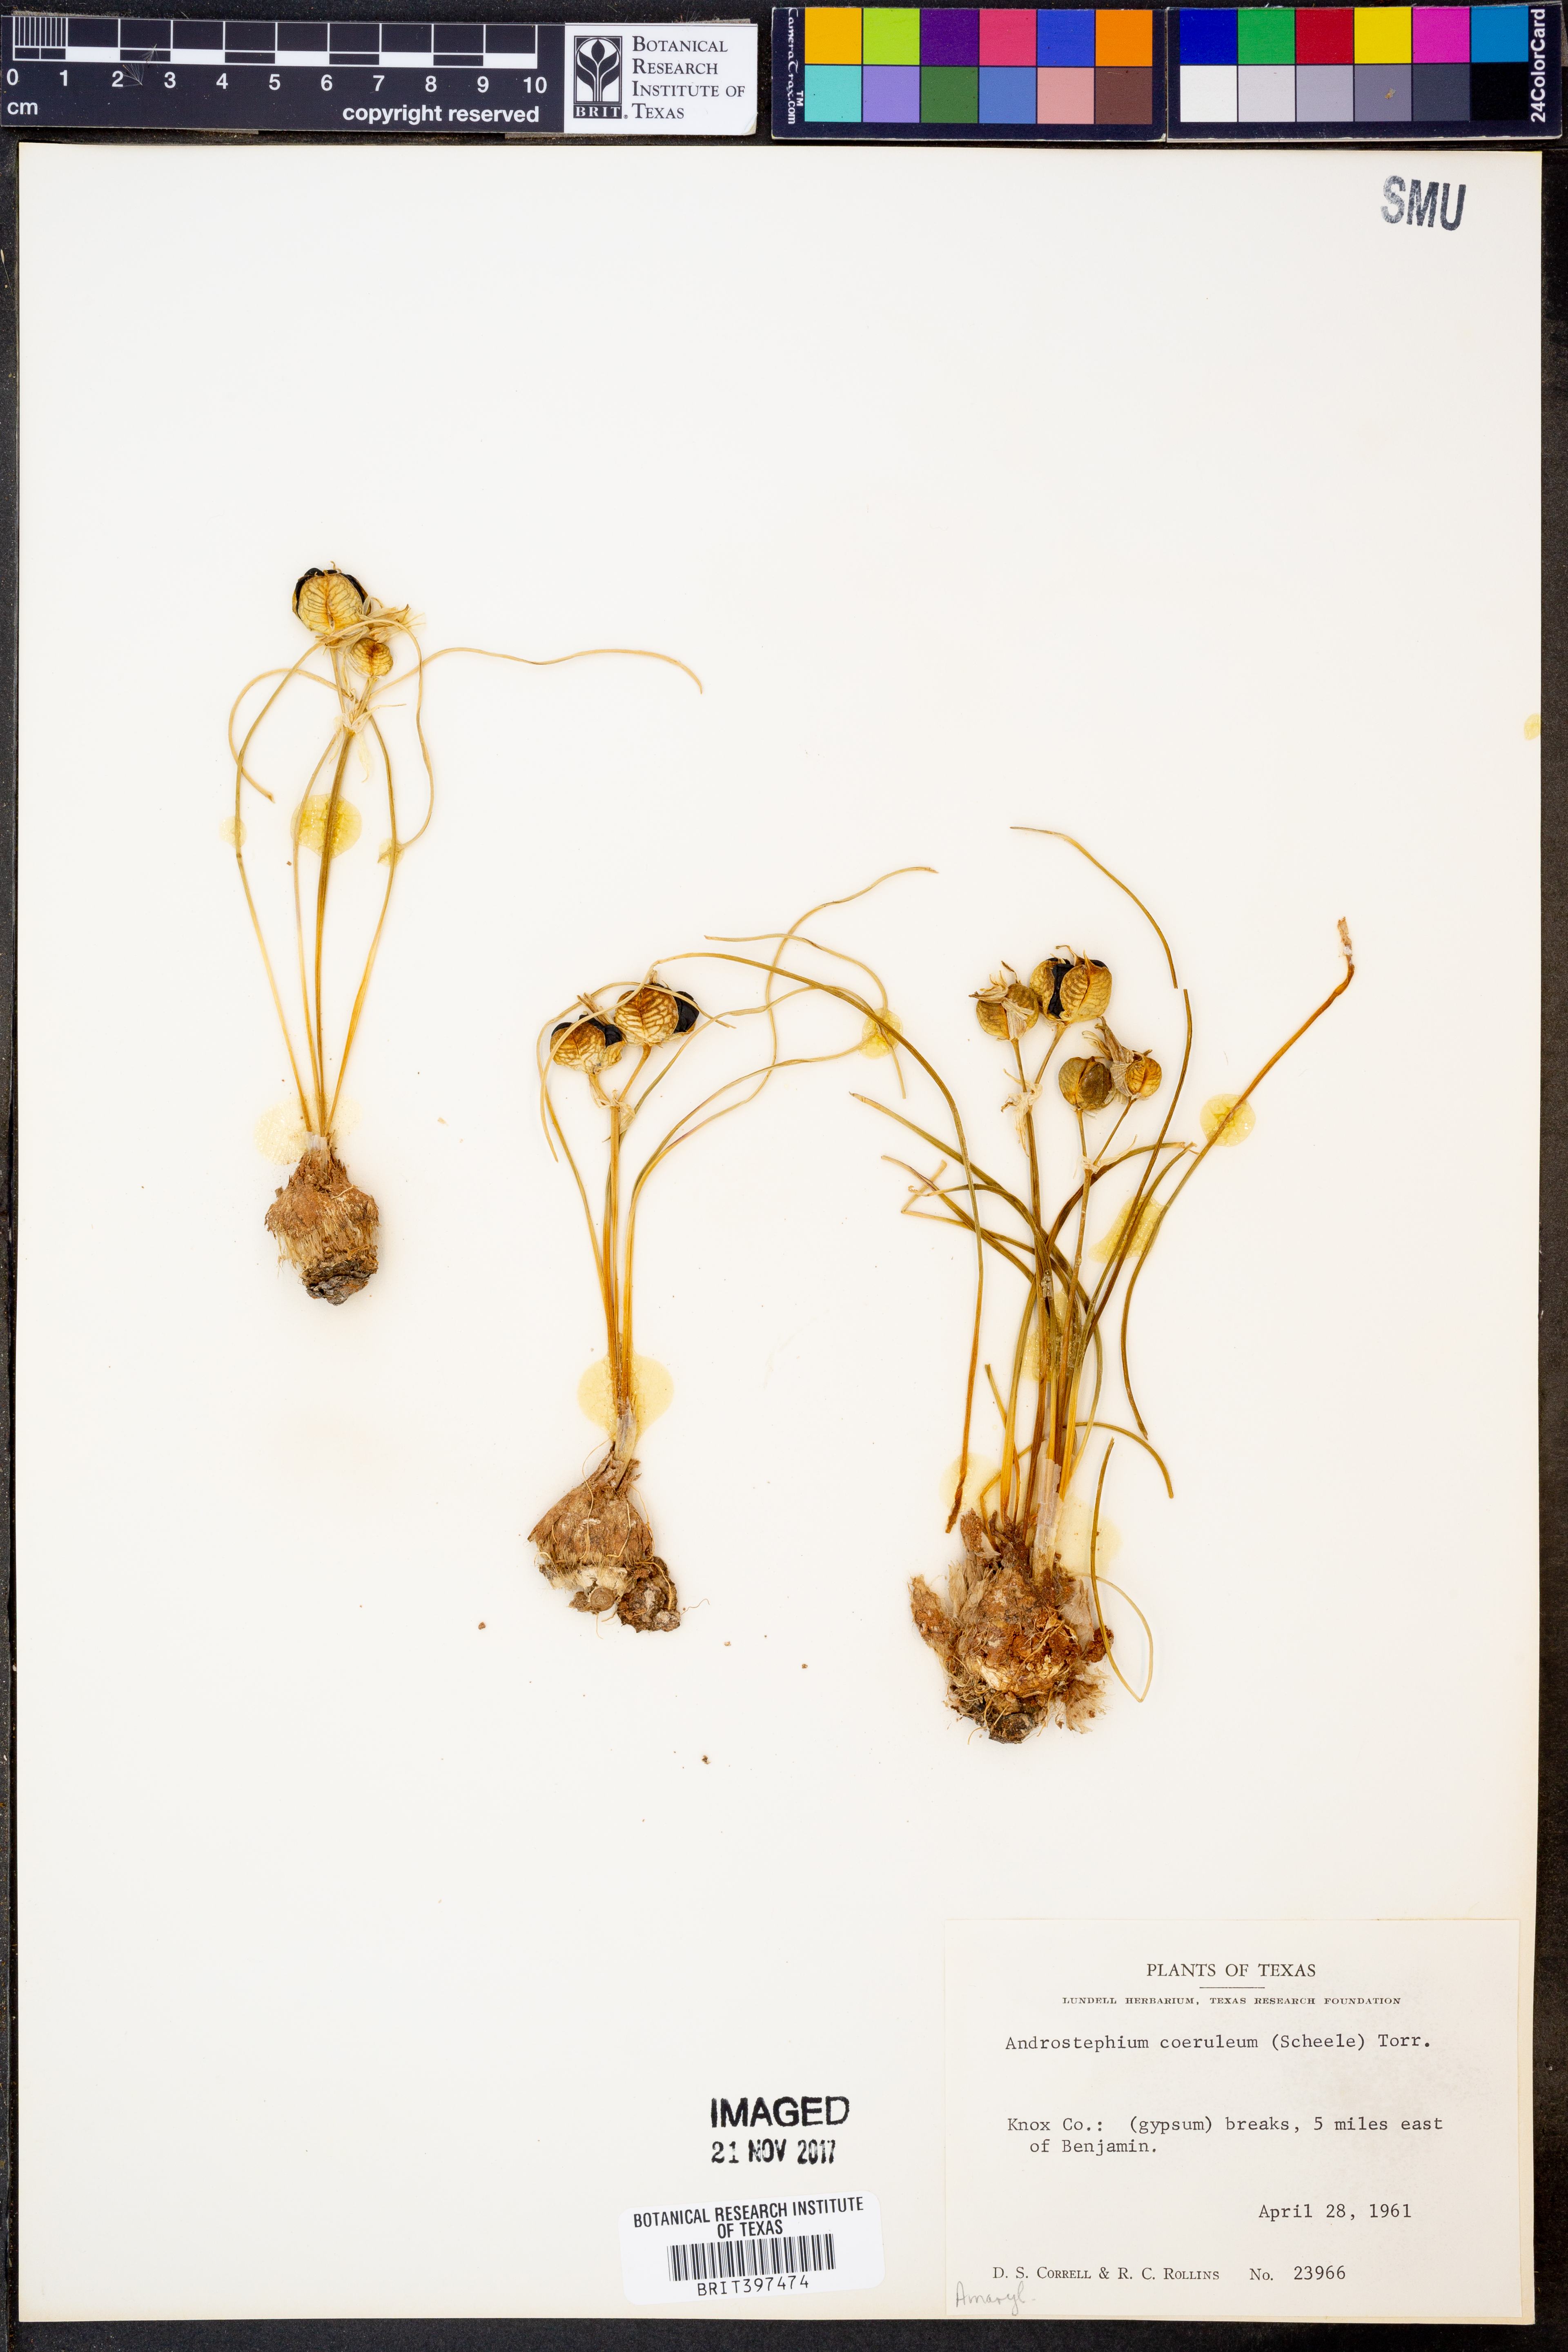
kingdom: Plantae
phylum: Tracheophyta
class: Liliopsida
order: Asparagales
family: Asparagaceae
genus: Androstephium
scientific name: Androstephium caeruleum
